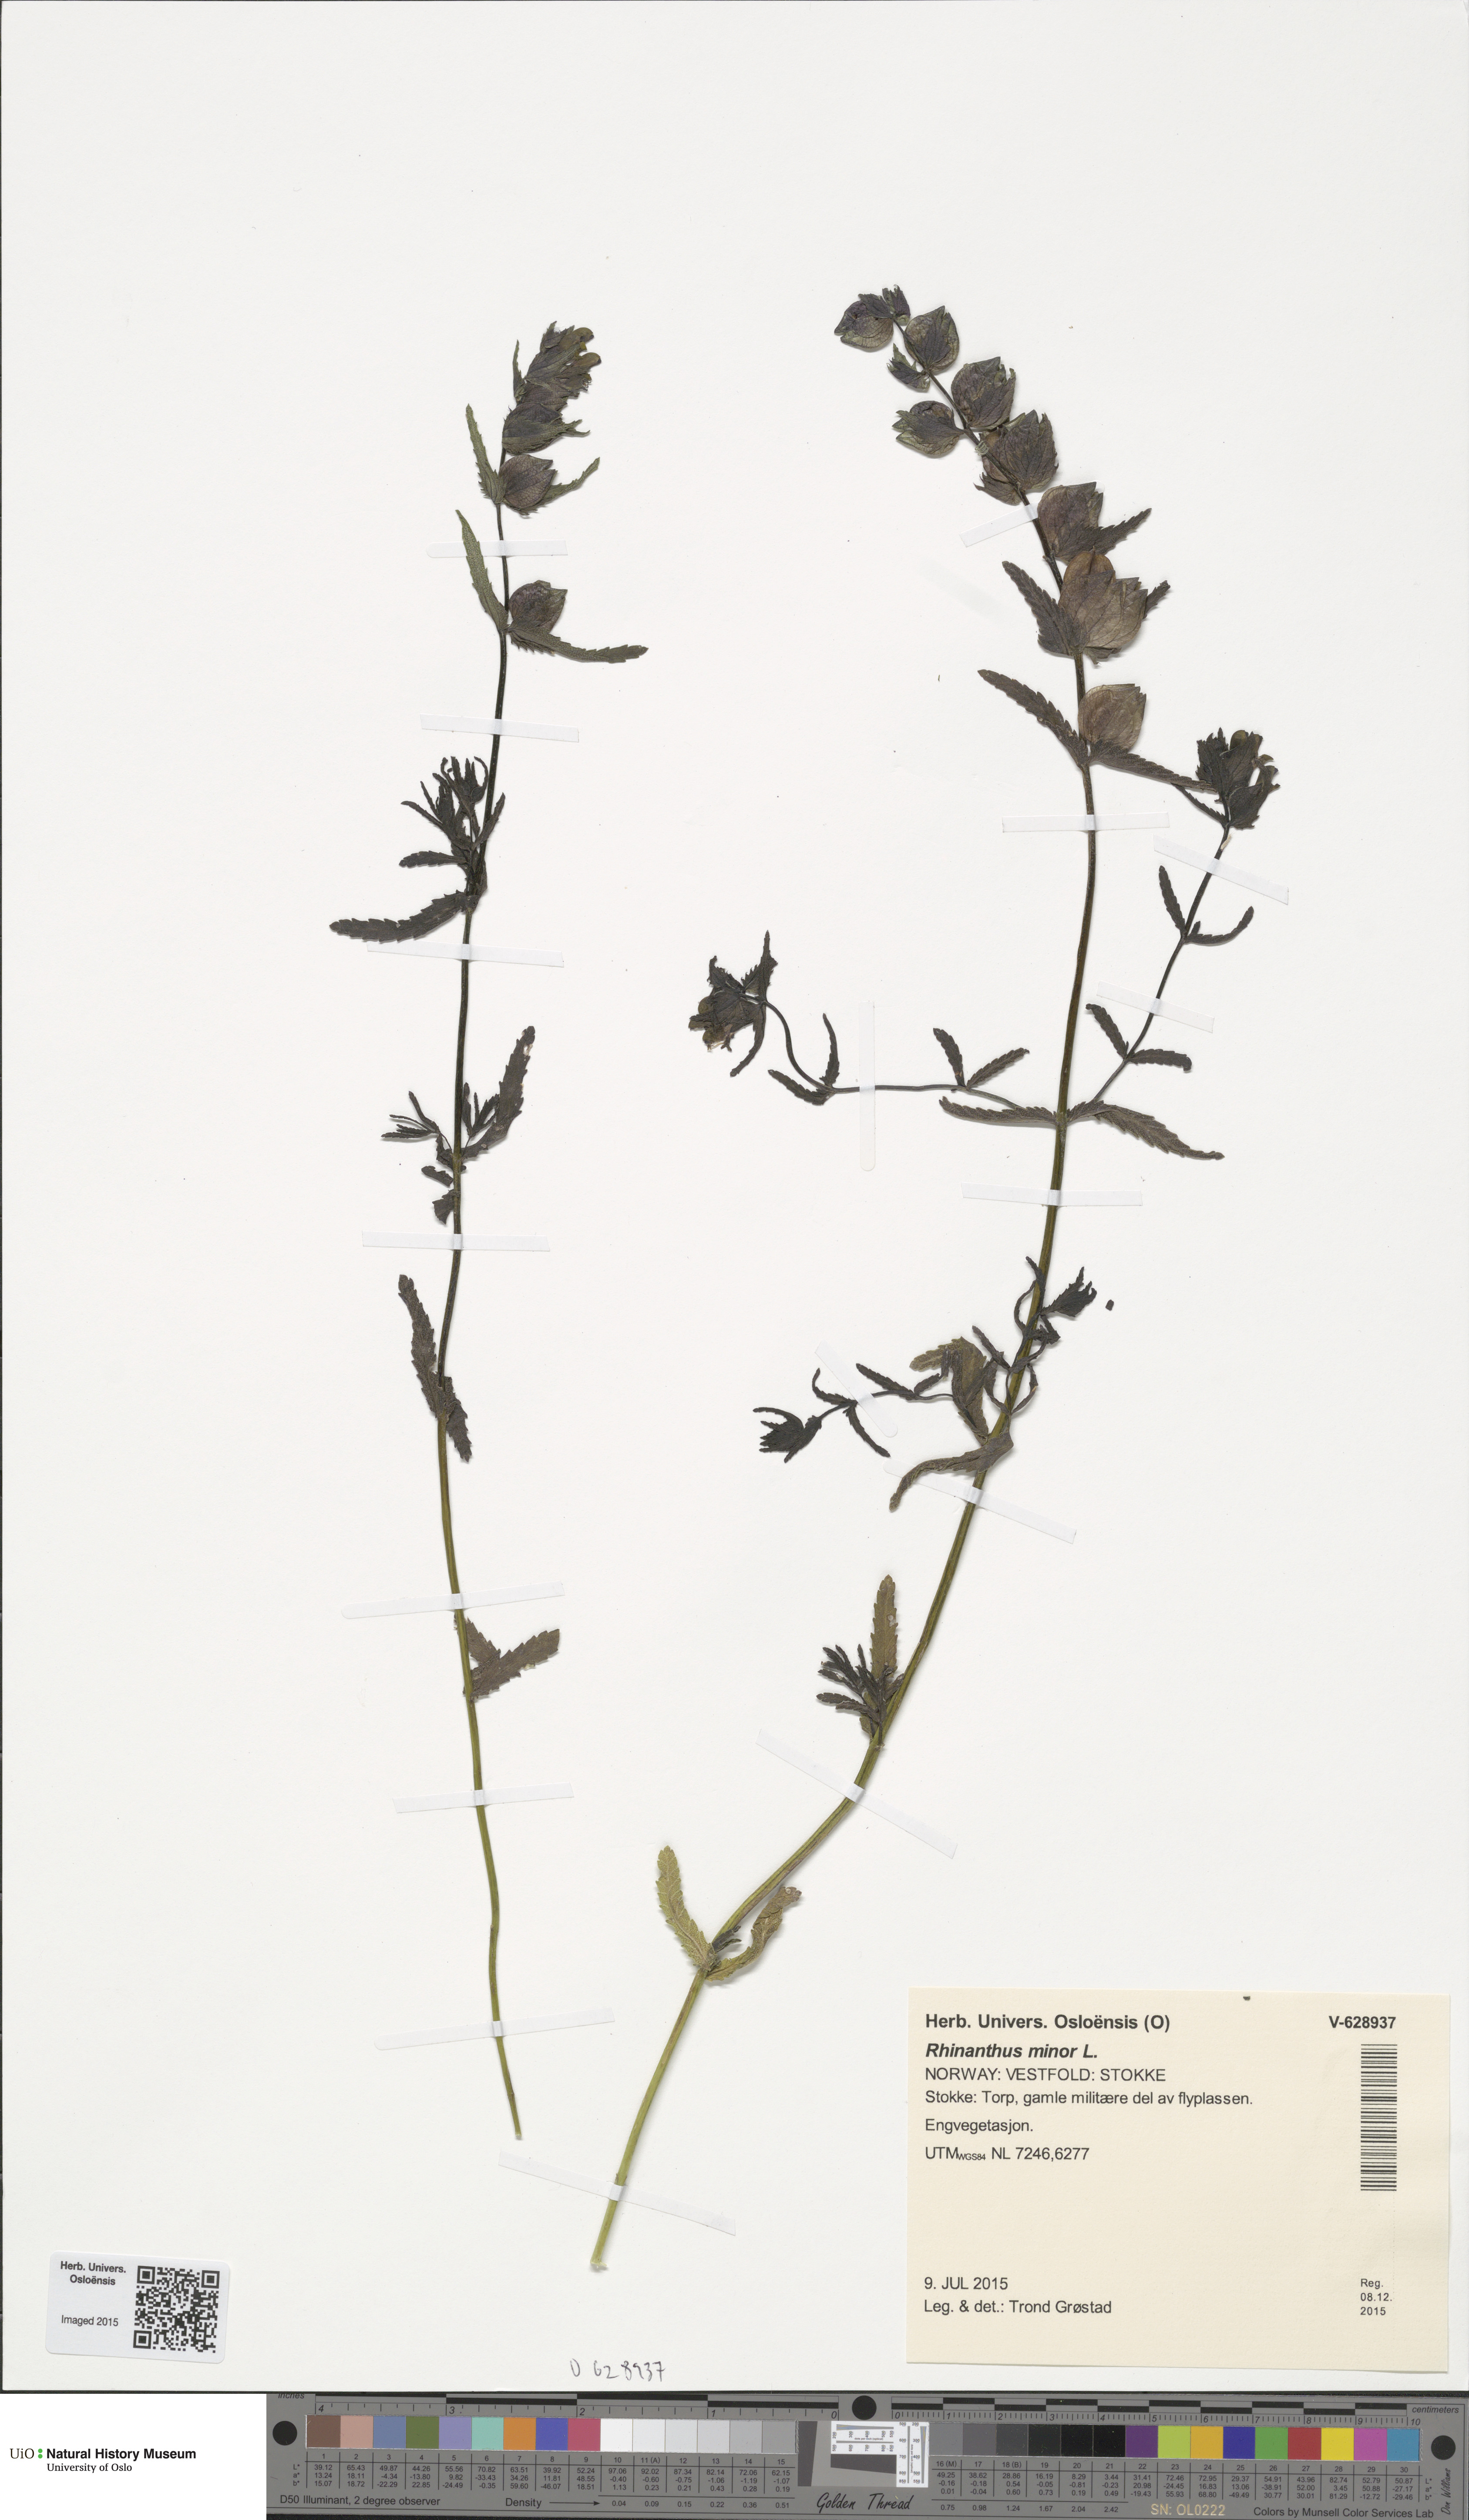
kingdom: Plantae
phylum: Tracheophyta
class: Magnoliopsida
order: Lamiales
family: Orobanchaceae
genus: Rhinanthus
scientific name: Rhinanthus minor
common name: Yellow-rattle
